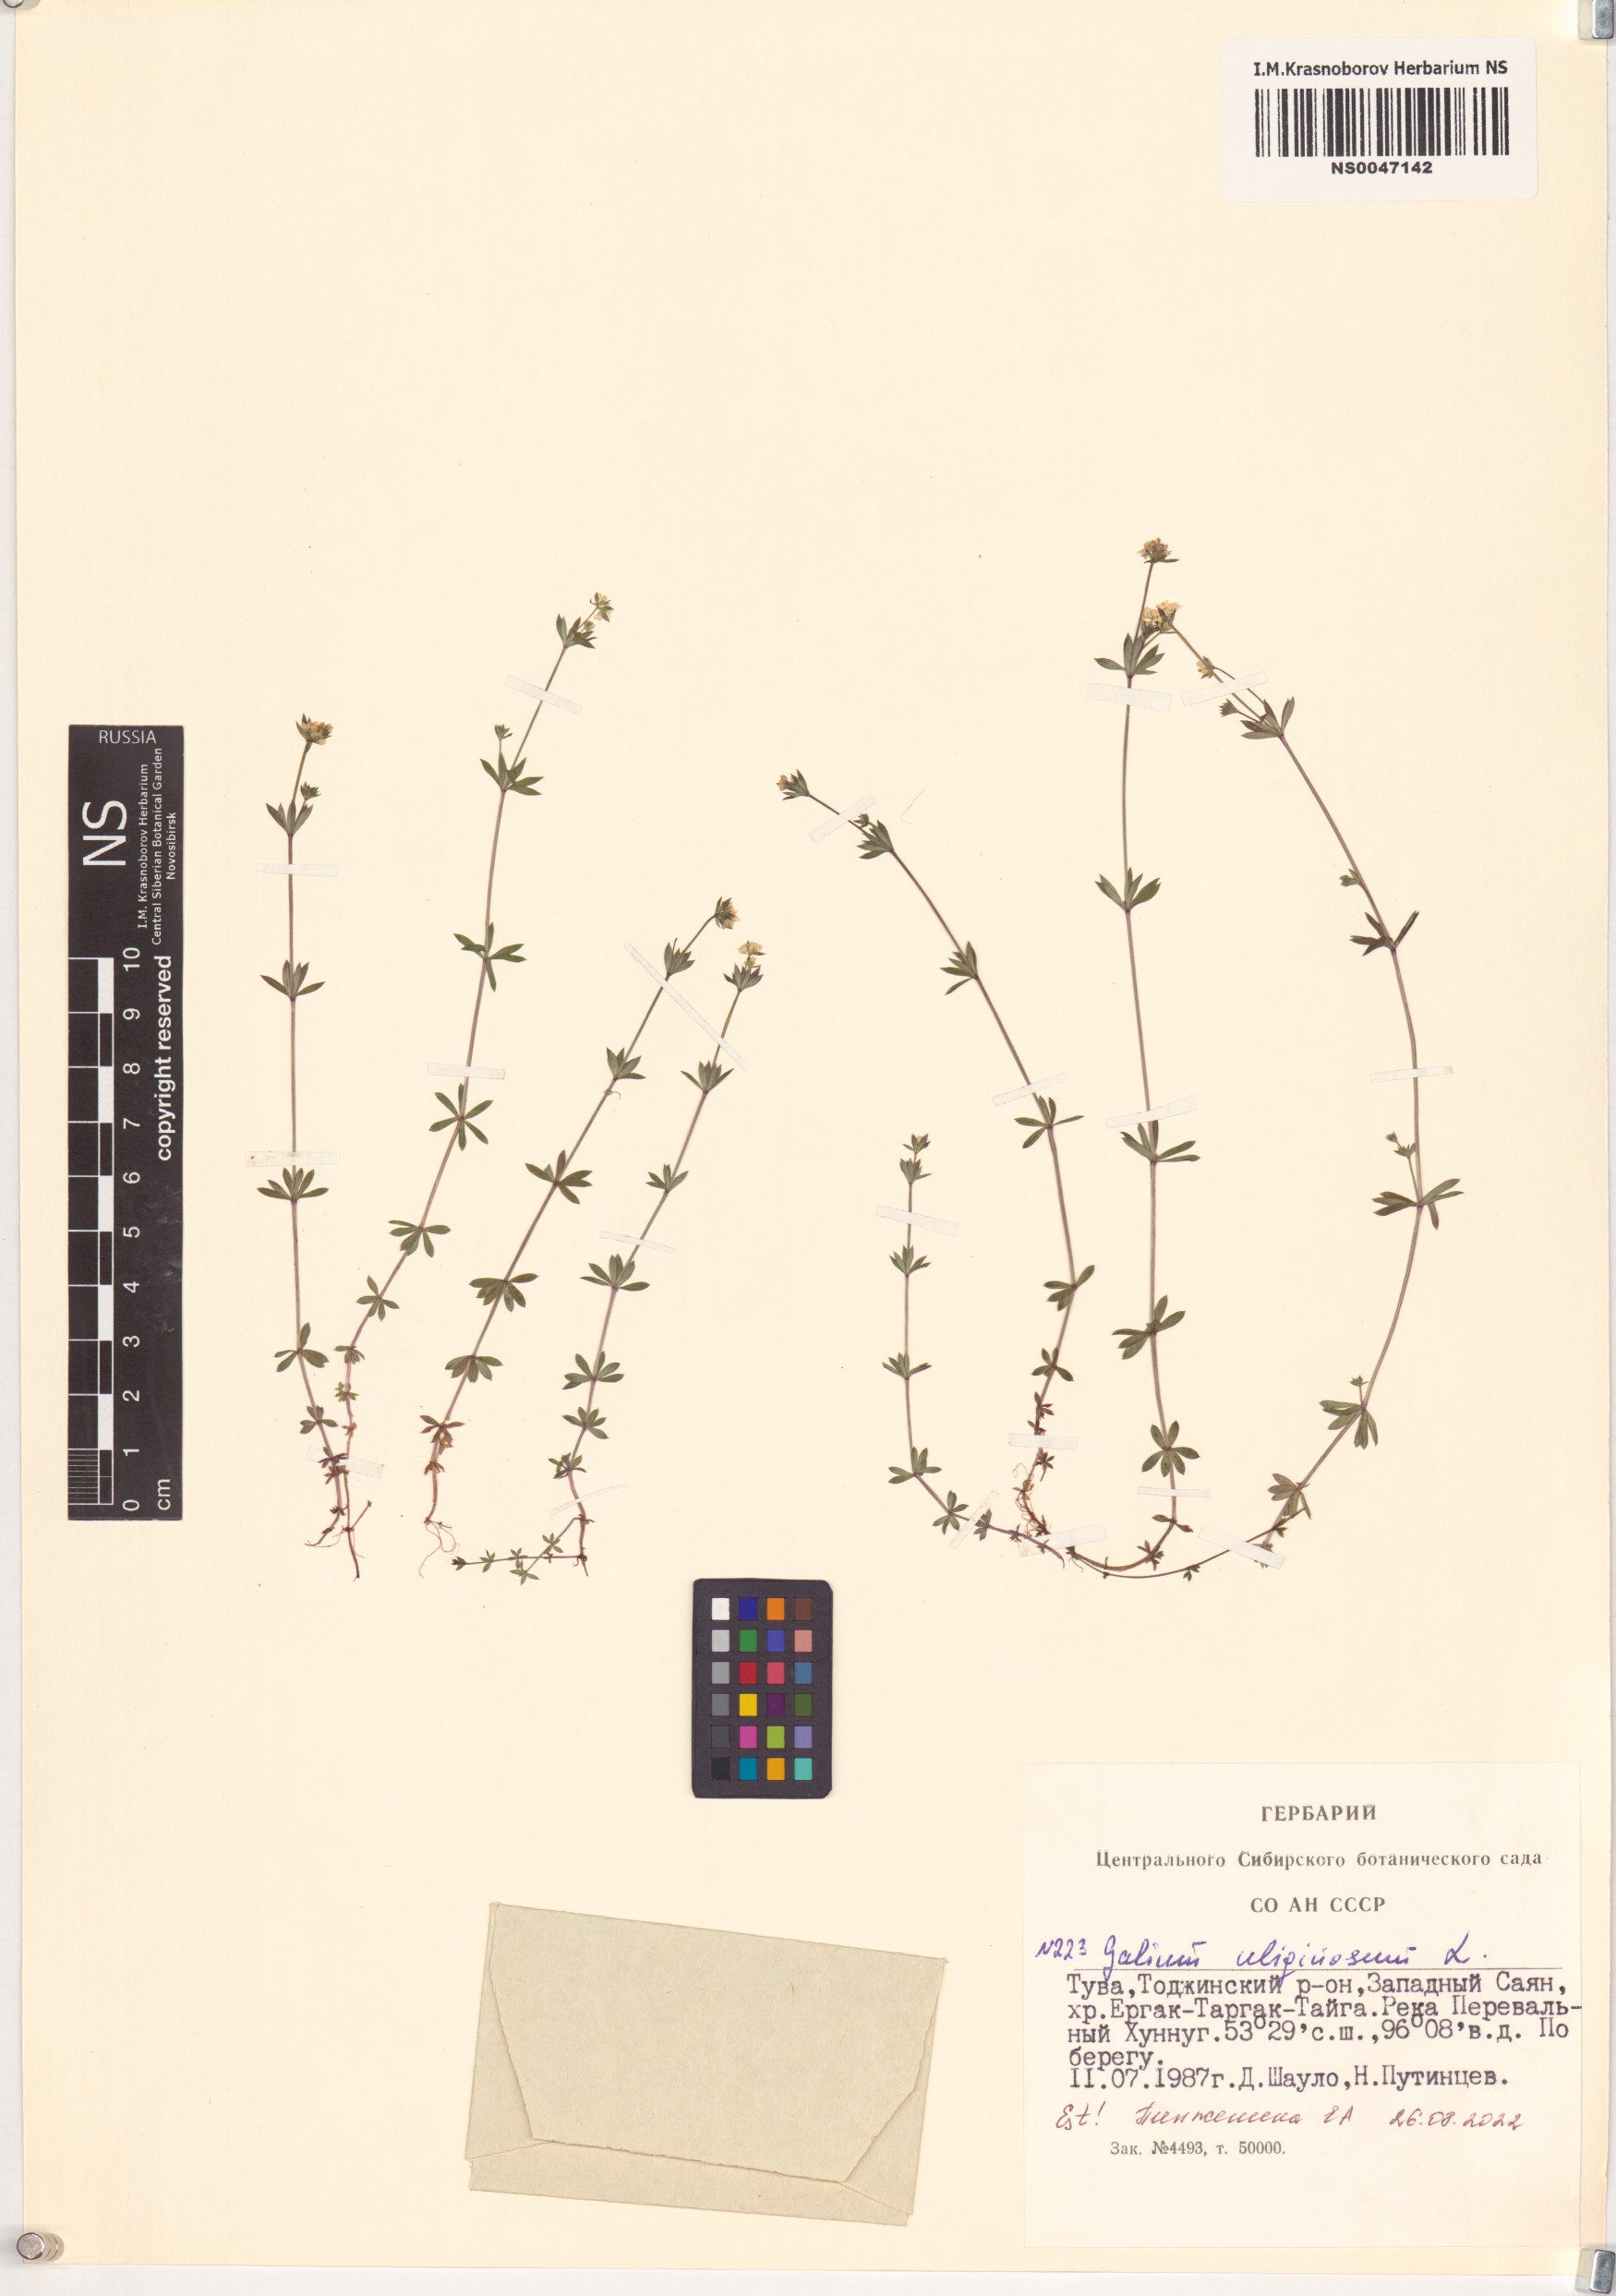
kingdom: Plantae
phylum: Tracheophyta
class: Magnoliopsida
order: Gentianales
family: Rubiaceae
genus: Galium
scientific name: Galium uliginosum
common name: Fen bedstraw
